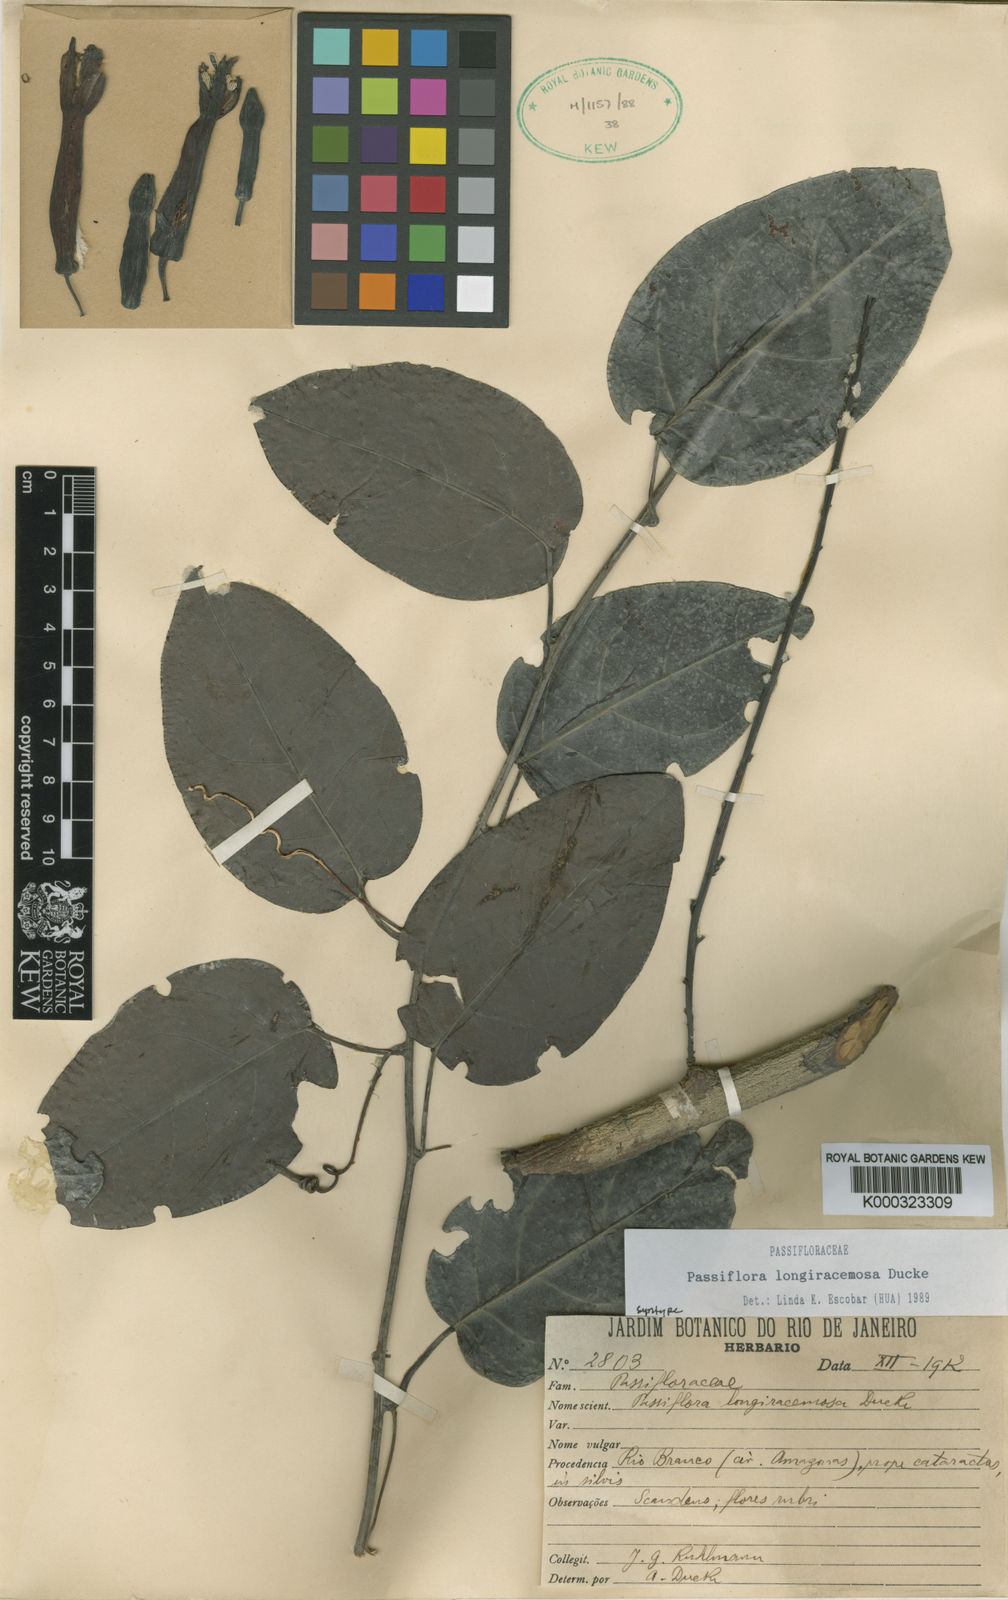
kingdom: Plantae
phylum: Tracheophyta
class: Magnoliopsida
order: Malpighiales
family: Passifloraceae
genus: Passiflora
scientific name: Passiflora longiracemosa
